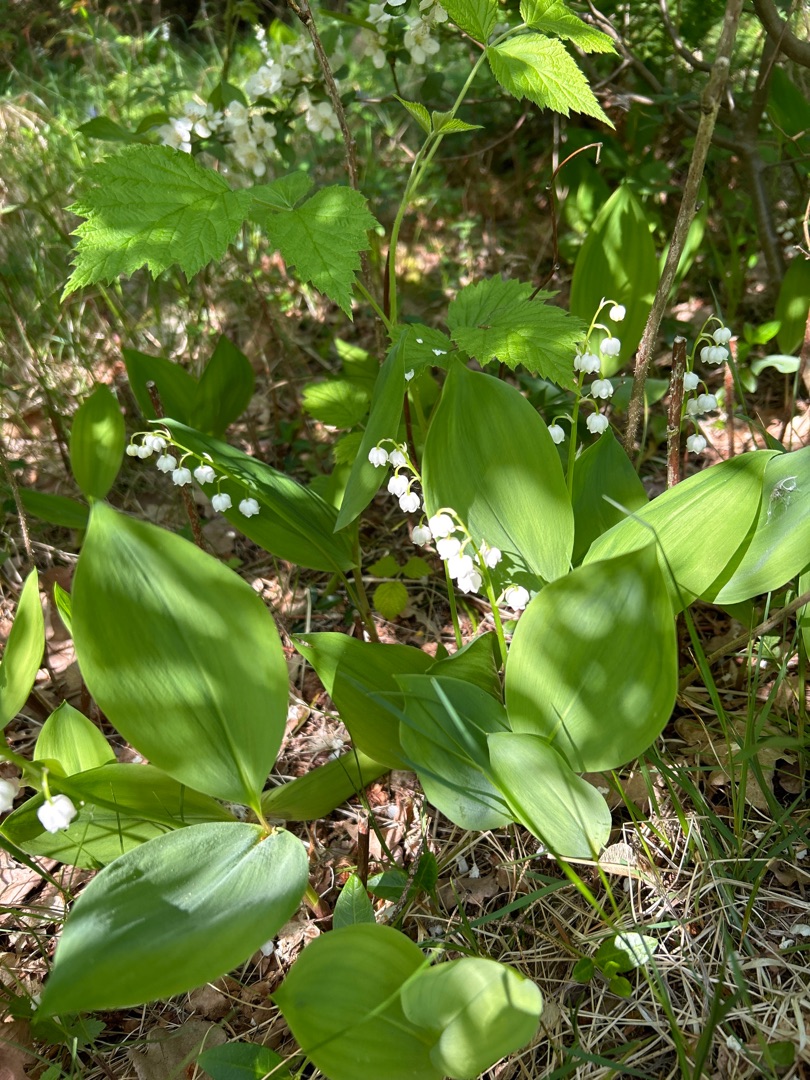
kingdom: Plantae
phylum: Tracheophyta
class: Liliopsida
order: Asparagales
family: Asparagaceae
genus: Convallaria
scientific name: Convallaria majalis
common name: Liljekonval
